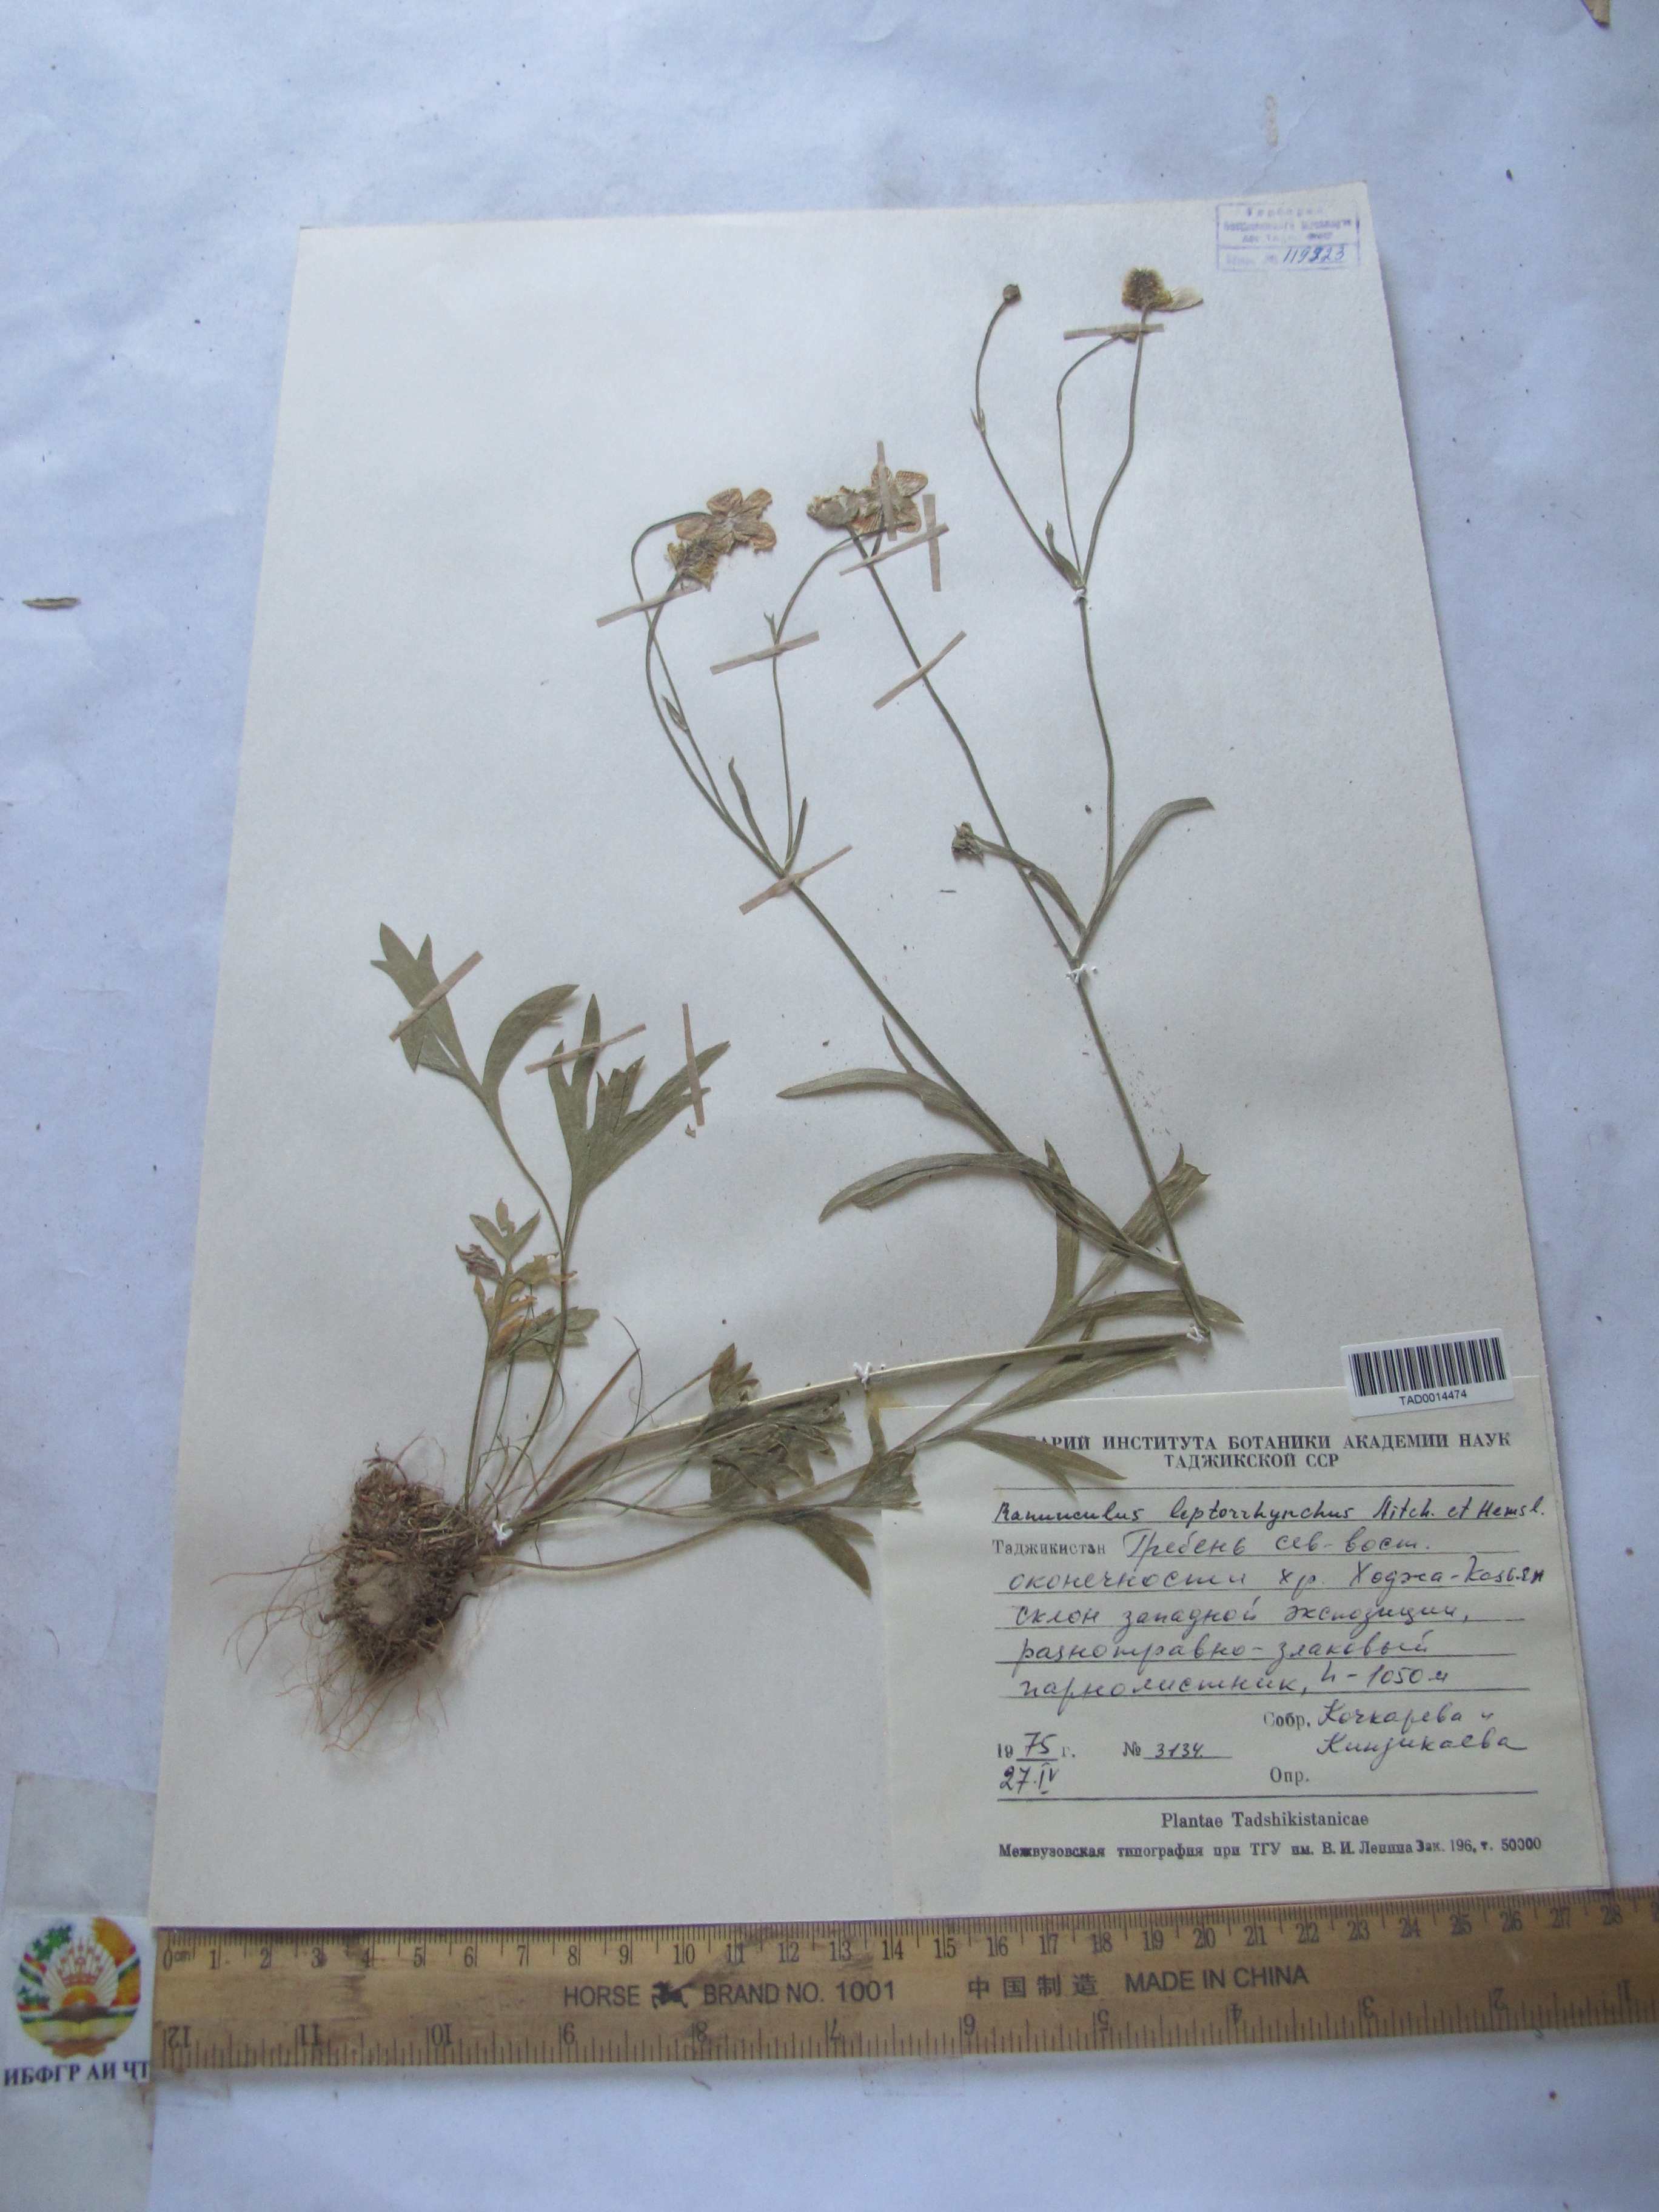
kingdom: Plantae
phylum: Tracheophyta
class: Magnoliopsida
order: Ranunculales
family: Ranunculaceae
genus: Ranunculus
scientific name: Ranunculus leptorrhynchus
